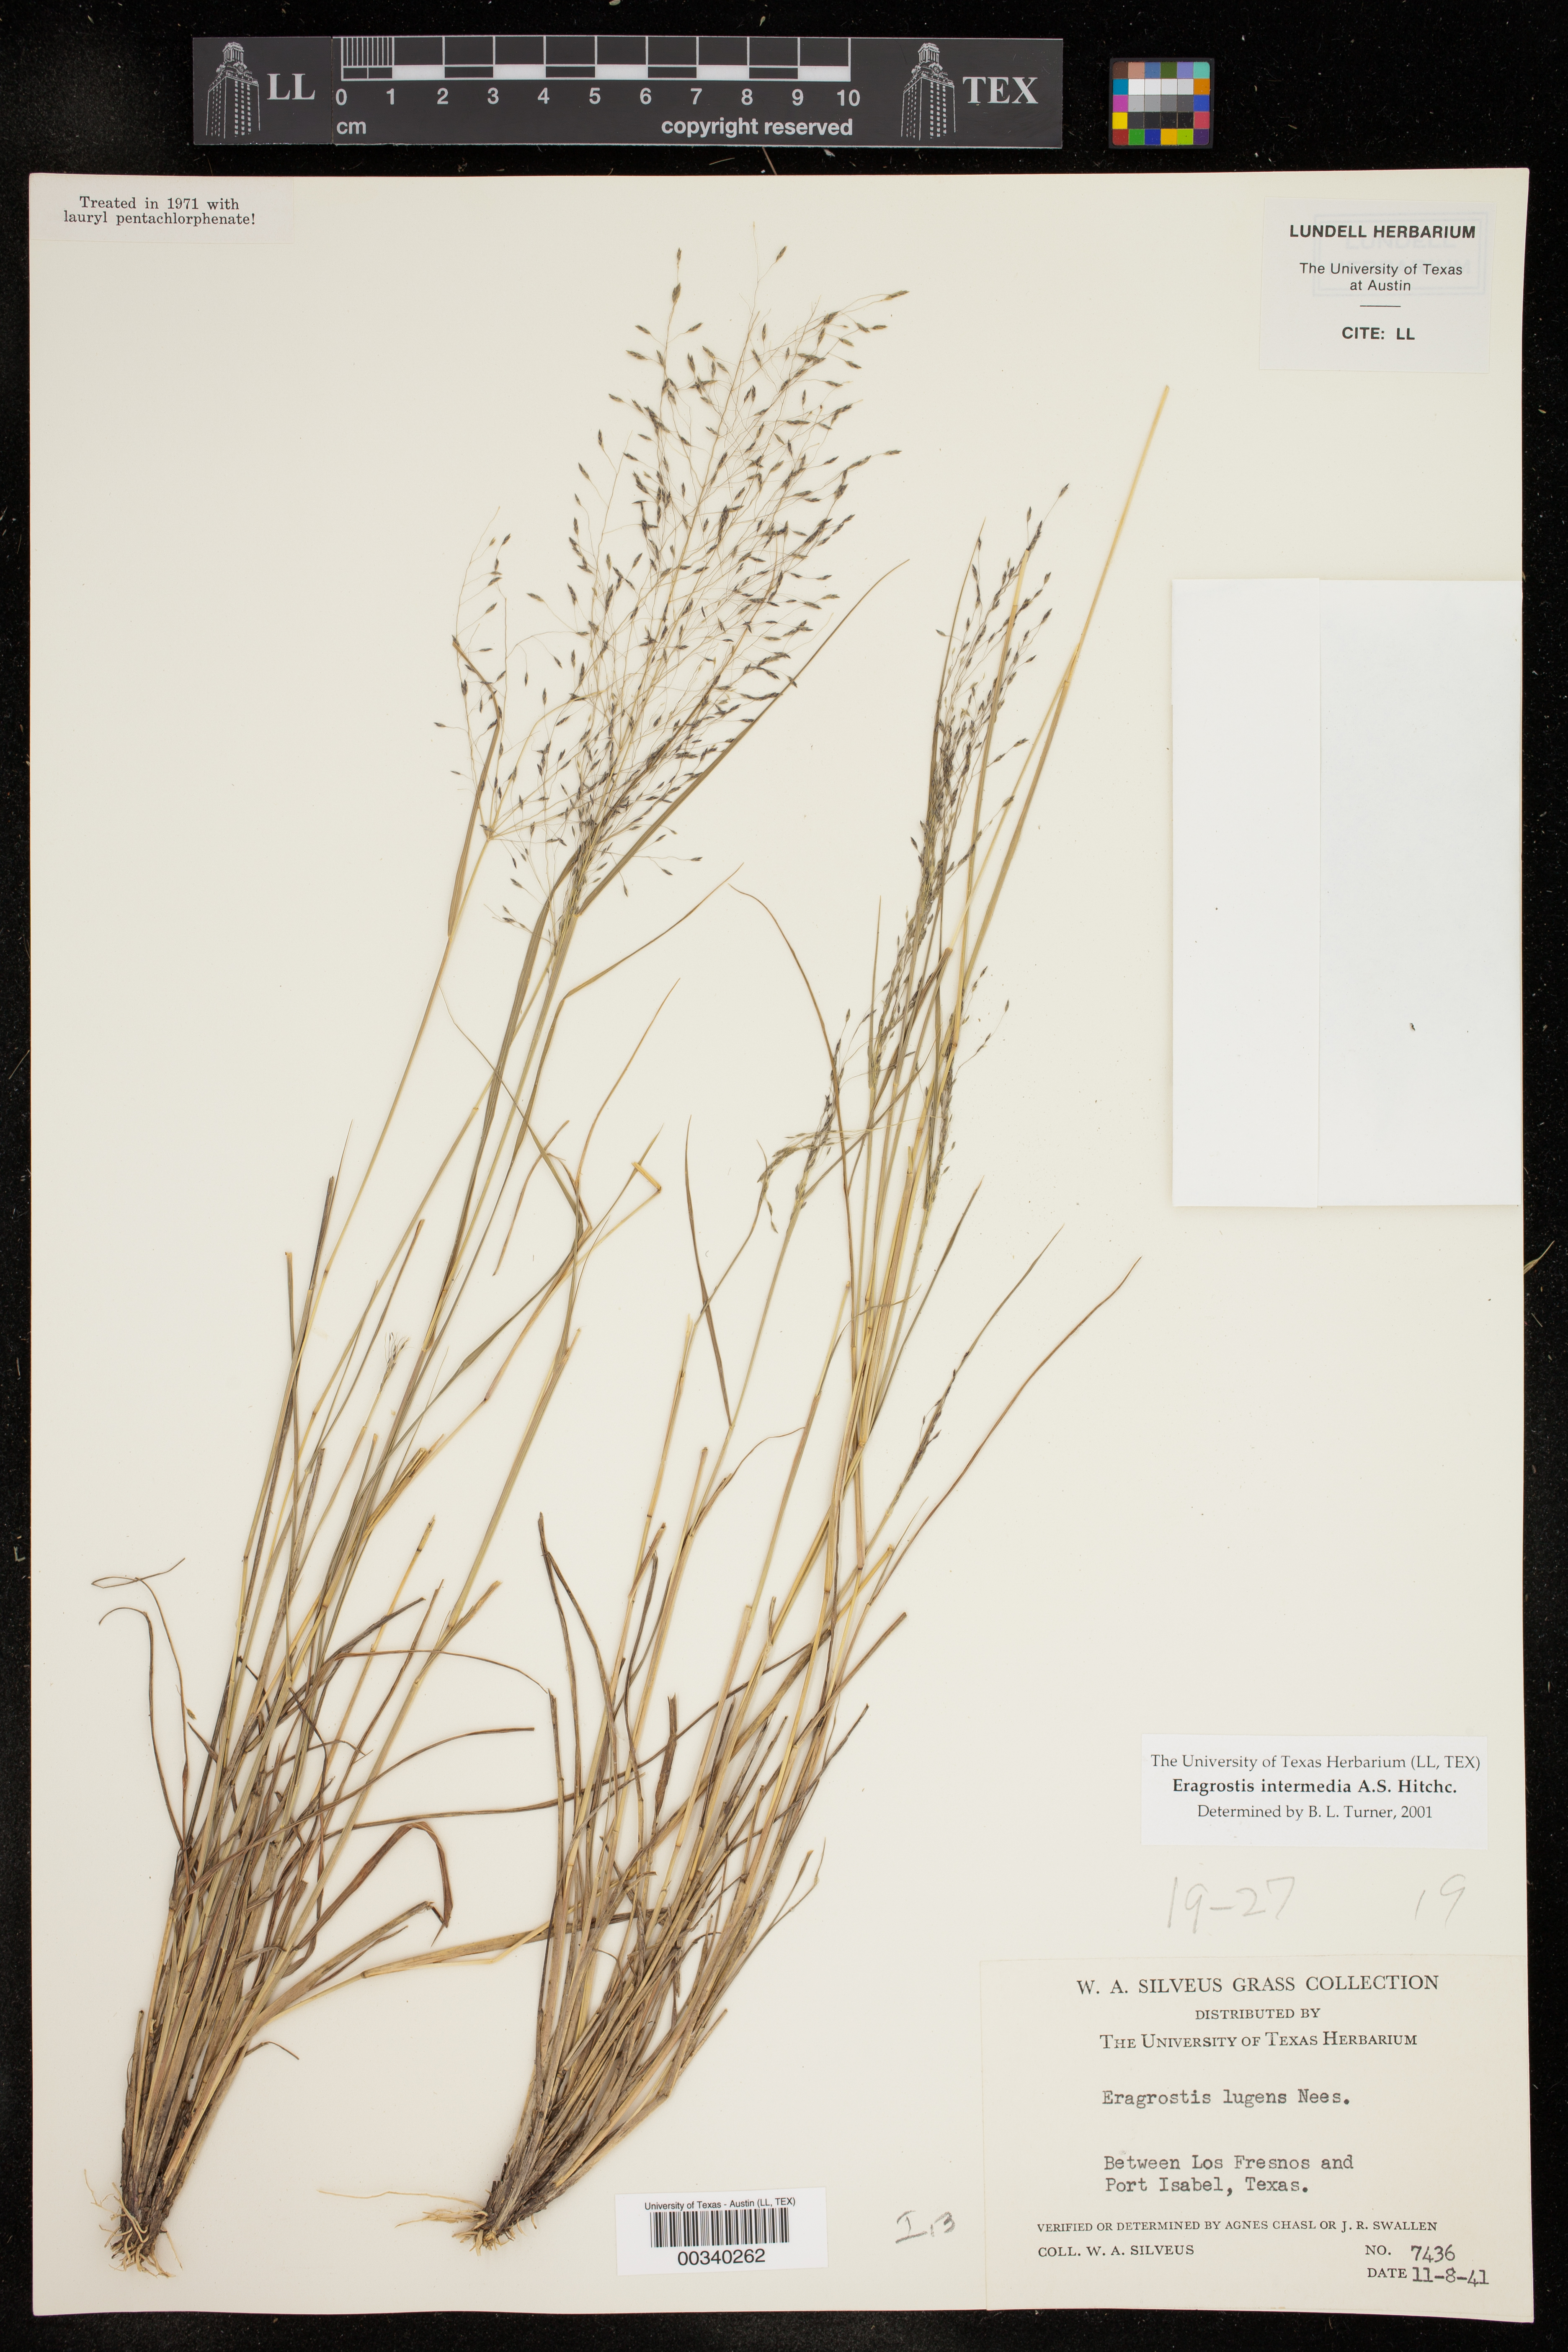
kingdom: Plantae
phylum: Tracheophyta
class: Liliopsida
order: Poales
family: Poaceae
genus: Eragrostis
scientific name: Eragrostis intermedia
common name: Plains love grass
